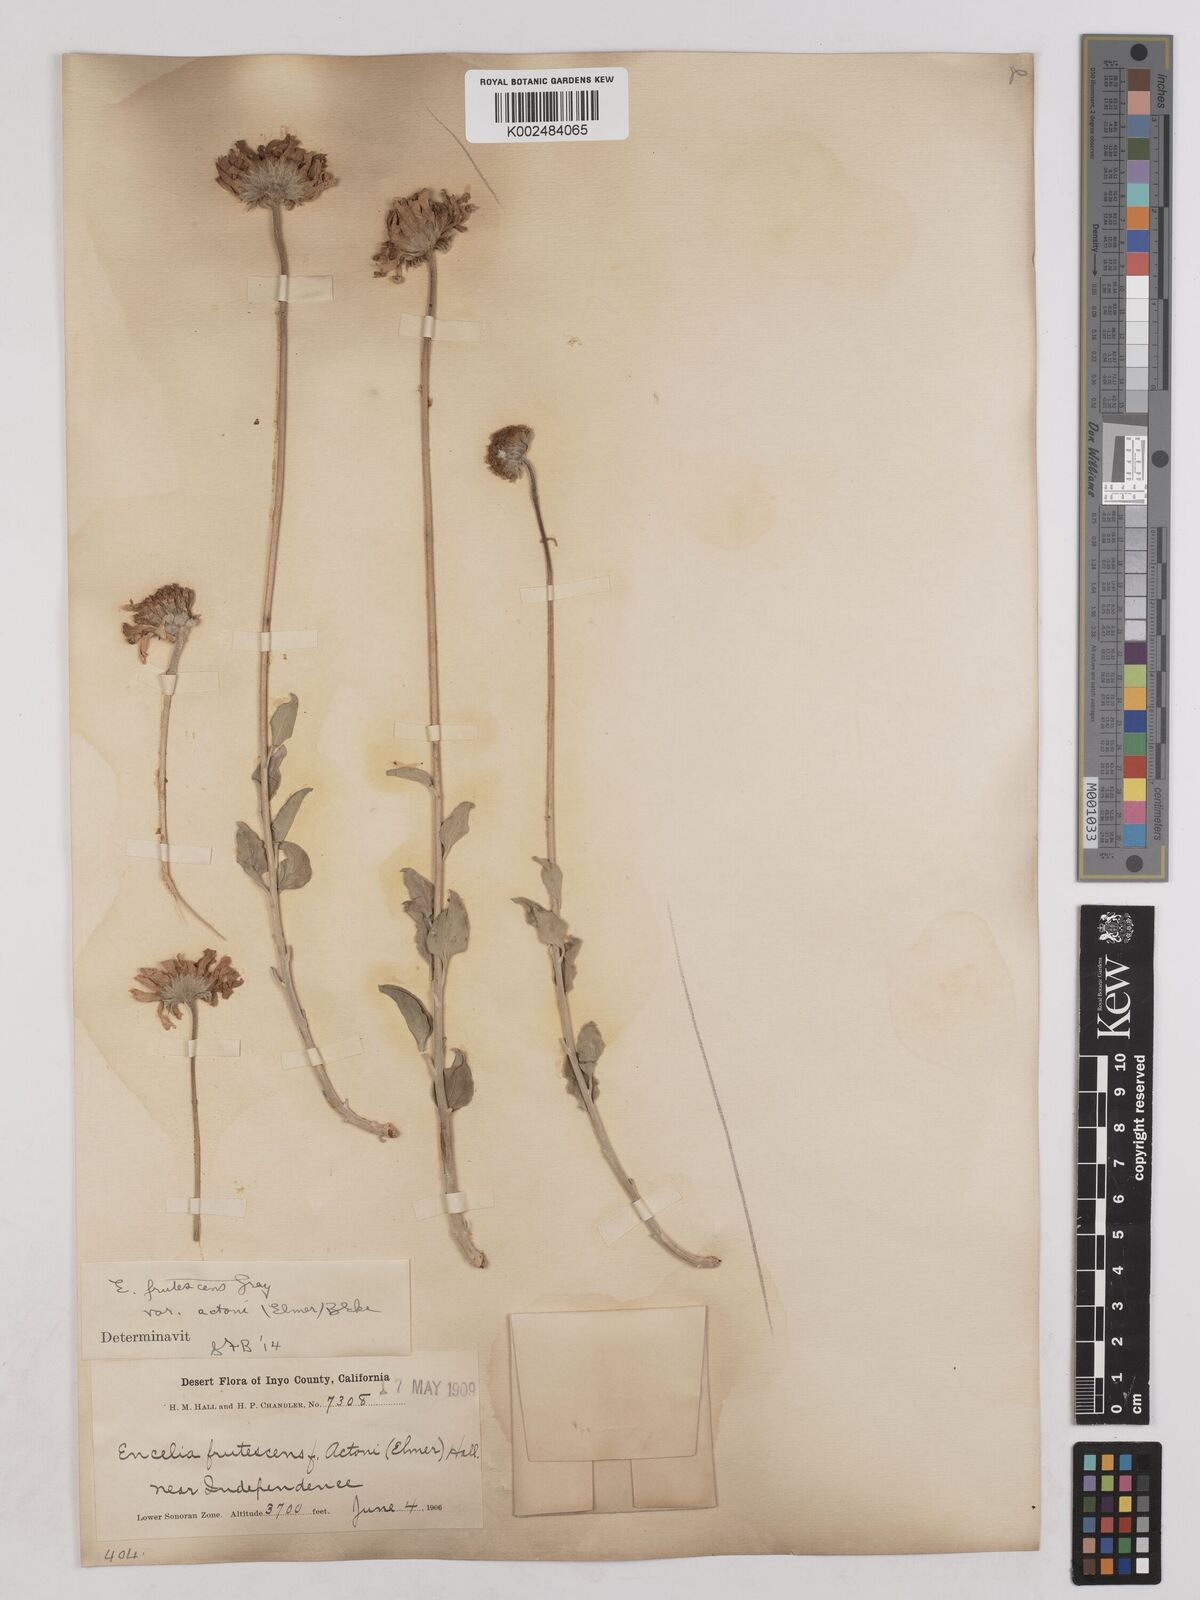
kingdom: Plantae
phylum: Tracheophyta
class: Magnoliopsida
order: Asterales
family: Asteraceae
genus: Encelia
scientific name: Encelia actoni
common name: Acton encelia
